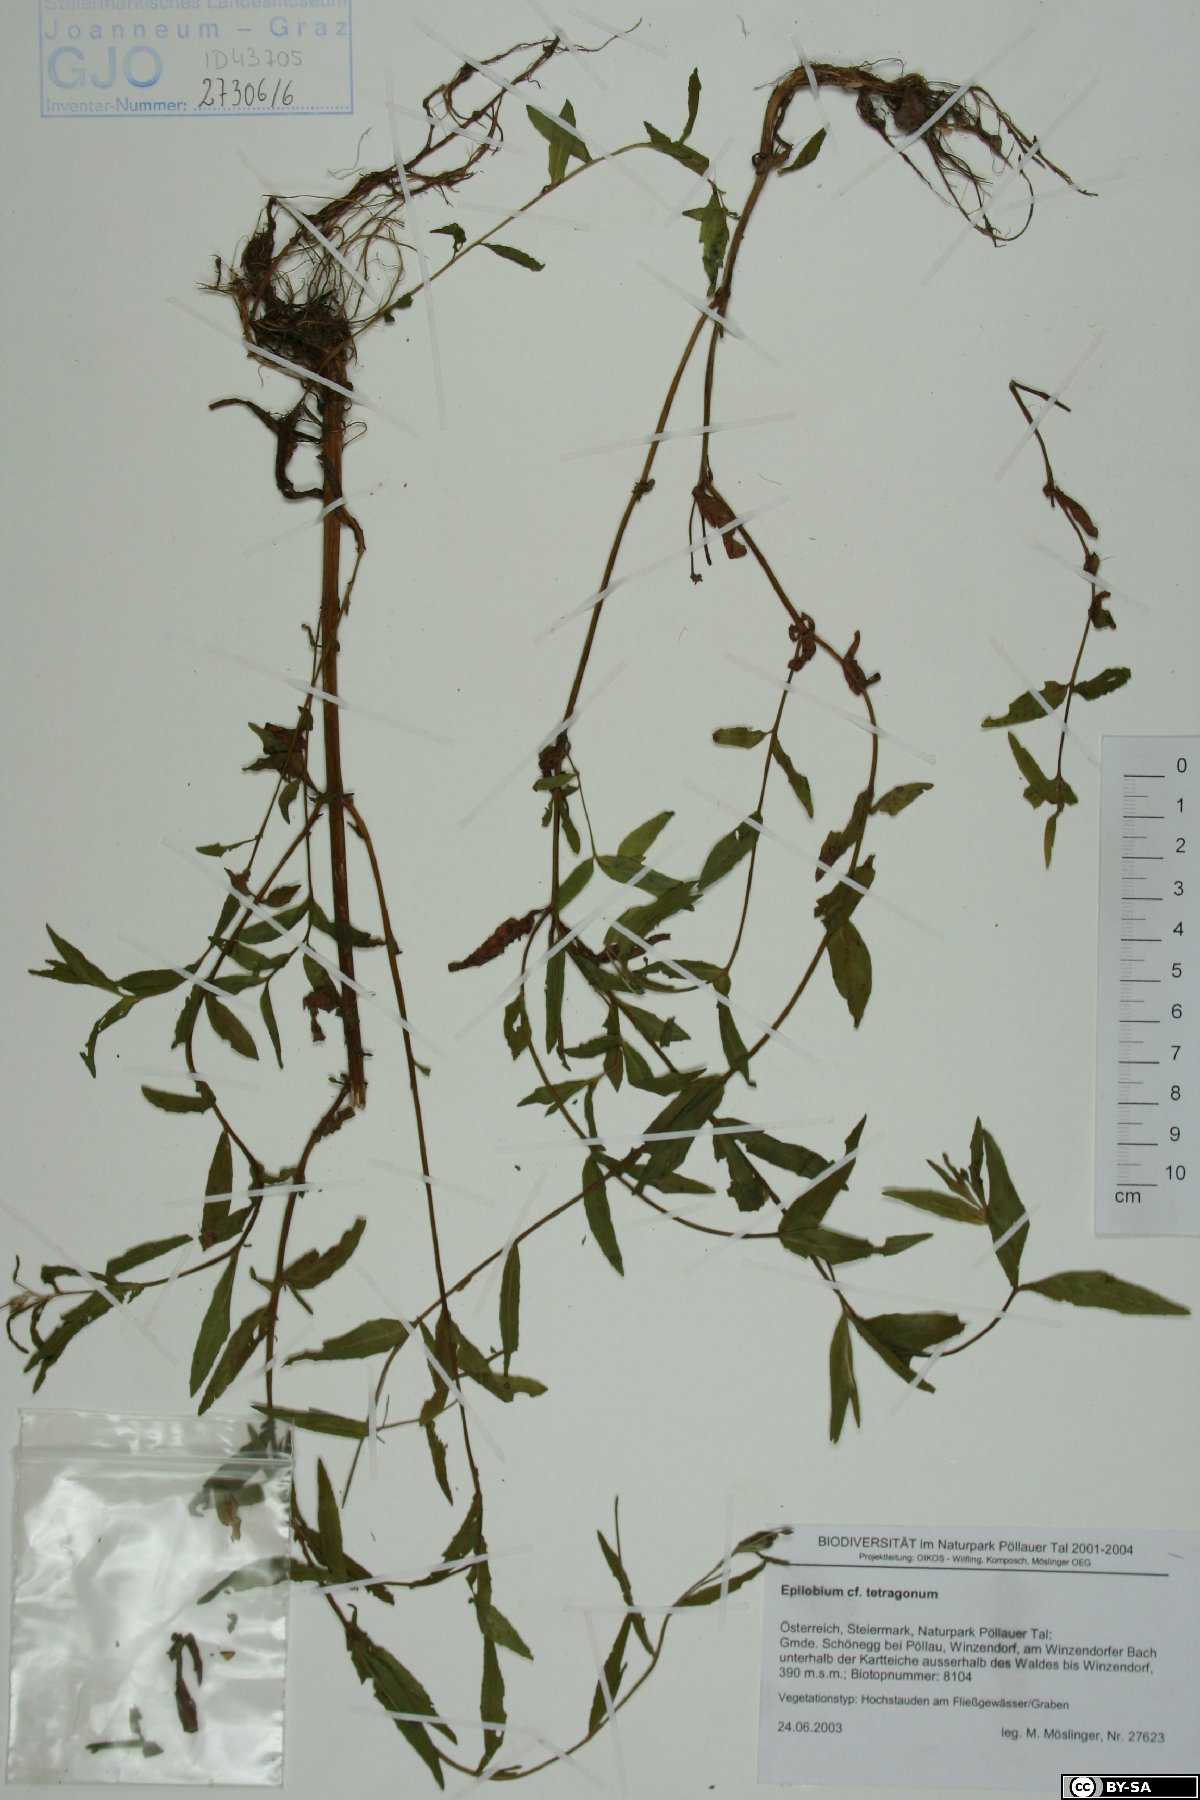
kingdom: Plantae
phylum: Tracheophyta
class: Magnoliopsida
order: Myrtales
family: Onagraceae
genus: Epilobium
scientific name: Epilobium obscurum
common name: Short-fruited willowherb
